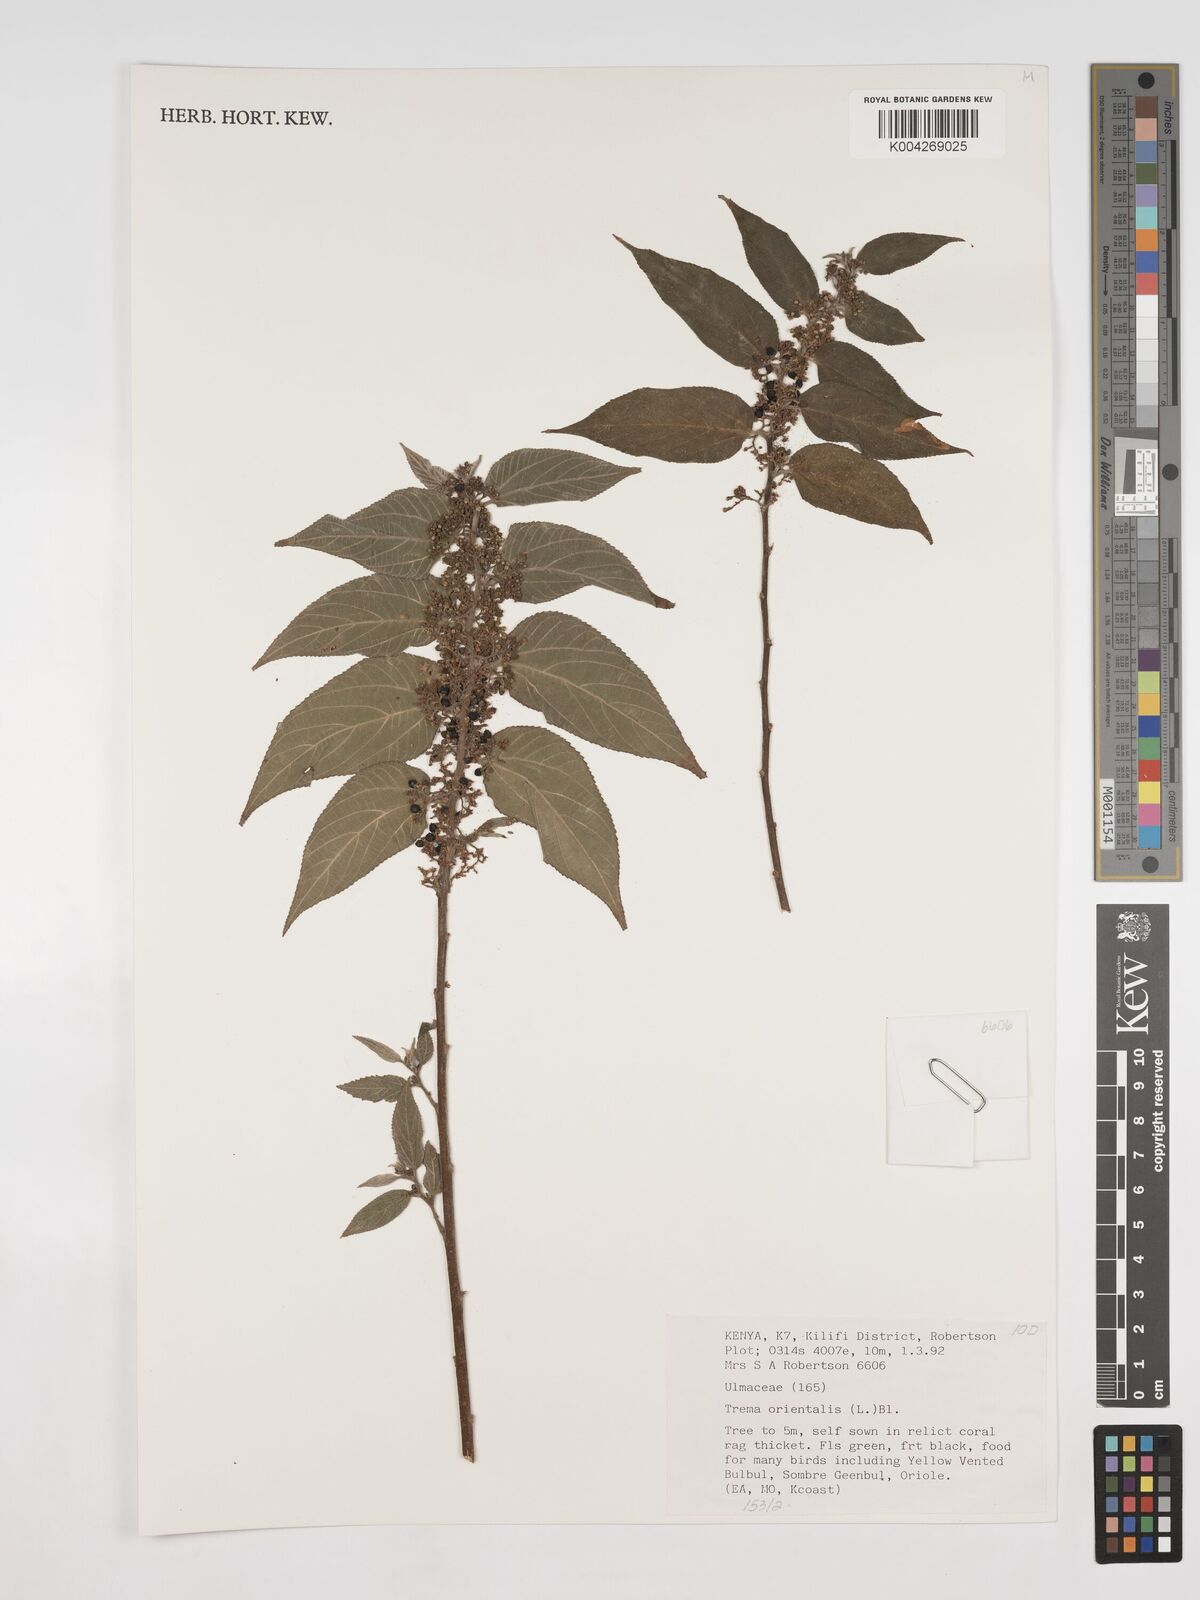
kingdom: Plantae
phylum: Tracheophyta
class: Magnoliopsida
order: Rosales
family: Cannabaceae
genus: Trema
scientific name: Trema orientale
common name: Indian charcoal tree
